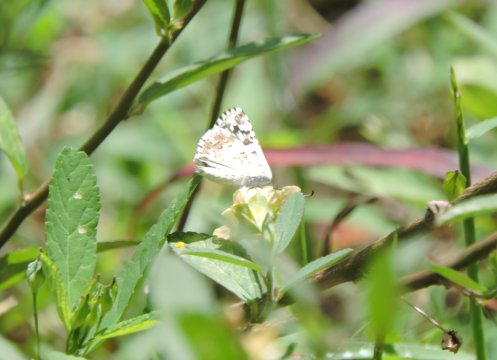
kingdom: Animalia
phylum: Arthropoda
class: Insecta
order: Lepidoptera
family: Hesperiidae
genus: Pyrgus
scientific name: Pyrgus oileus
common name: Tropical Checkered-Skipper
